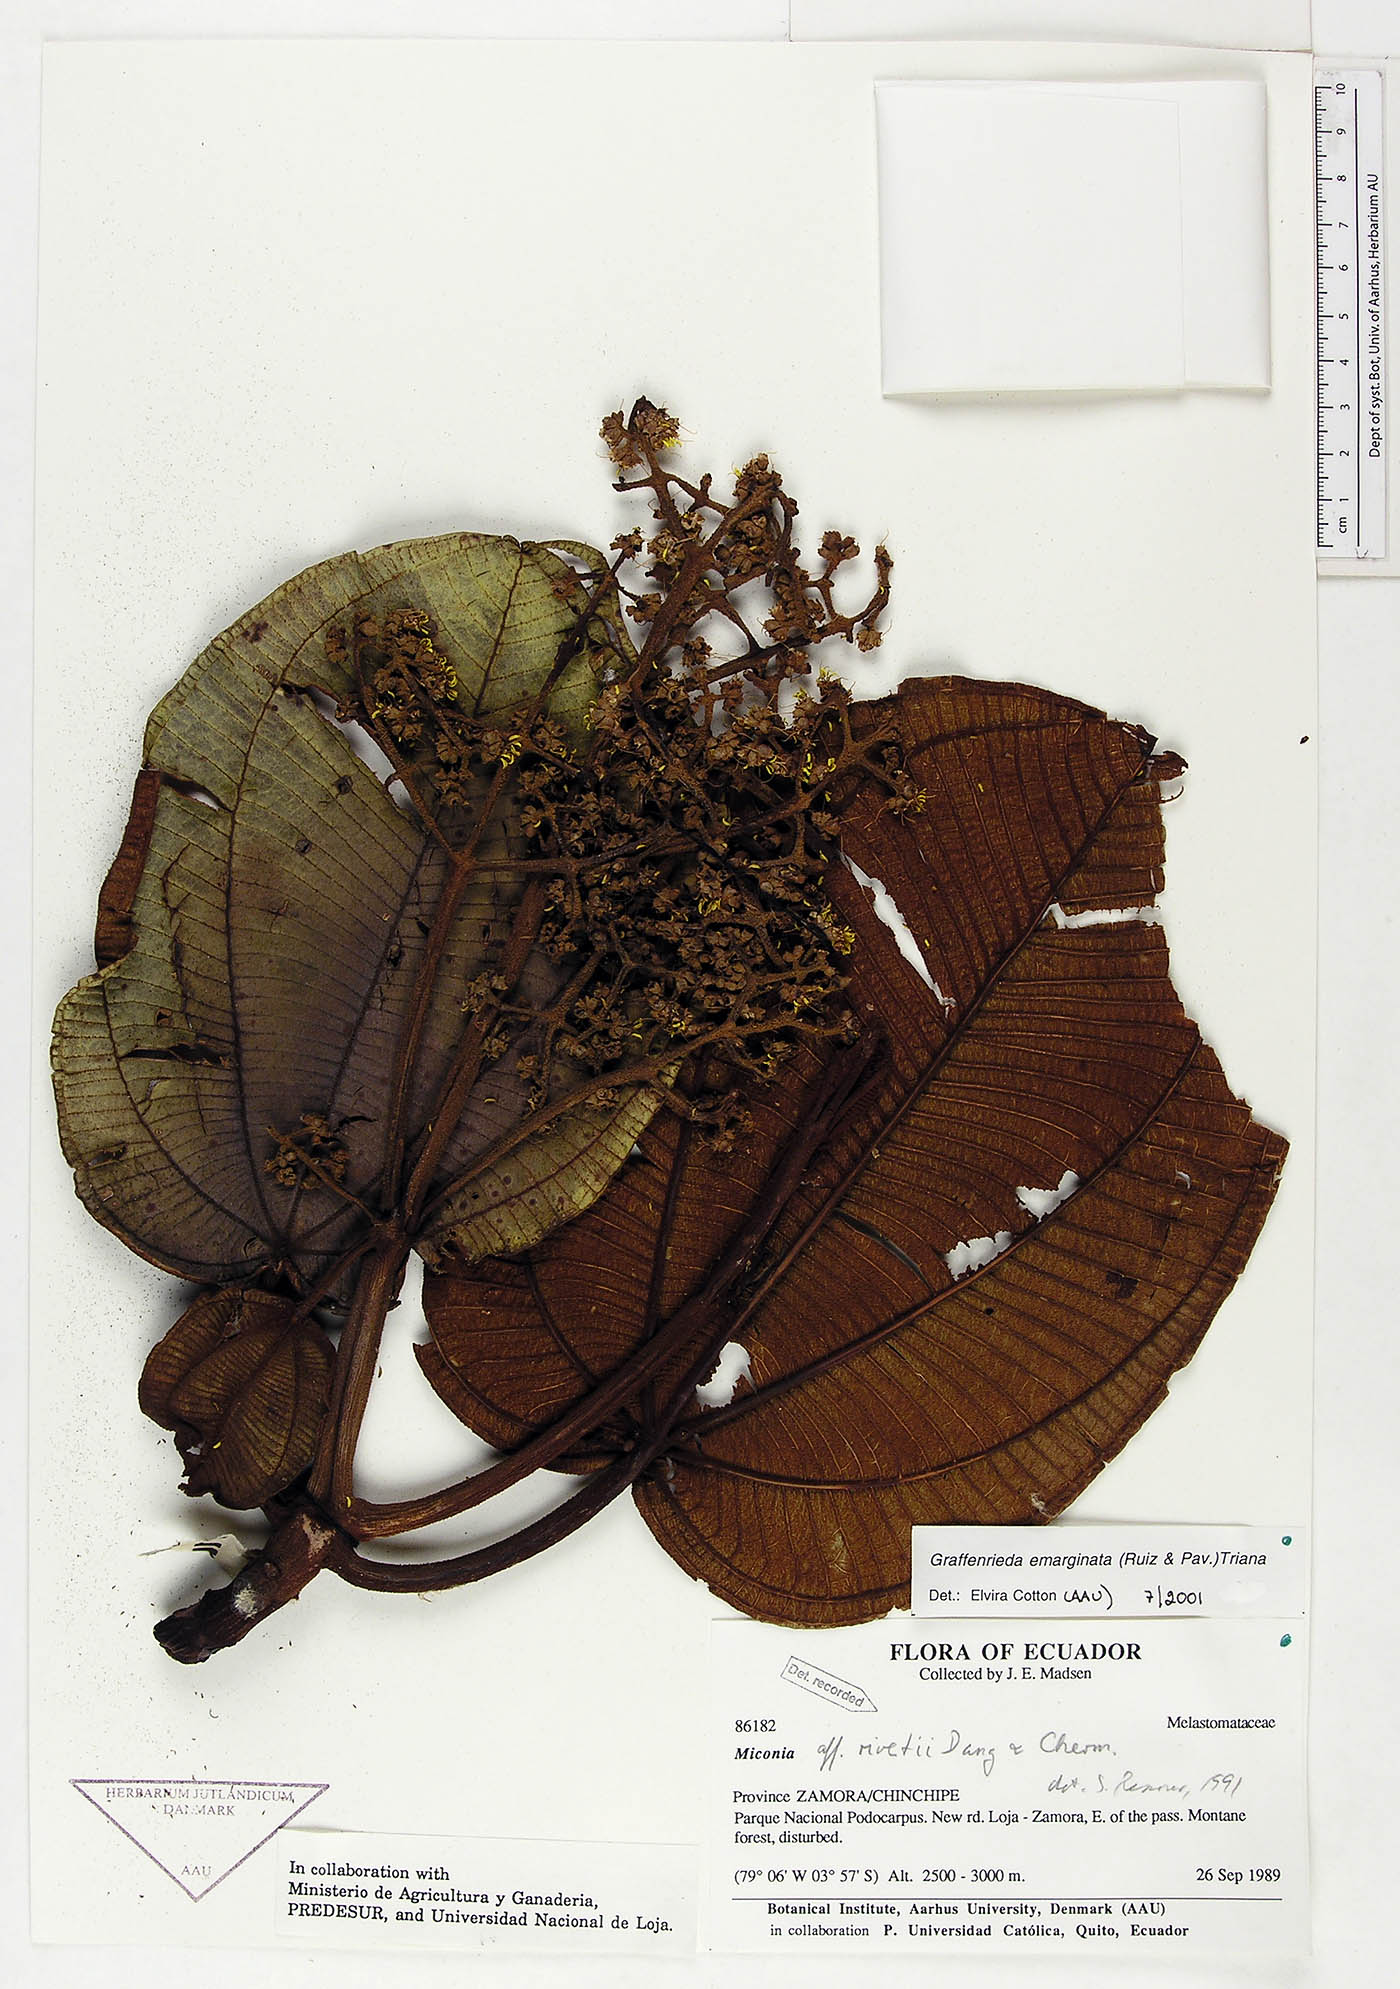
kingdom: Plantae
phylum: Tracheophyta
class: Magnoliopsida
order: Myrtales
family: Melastomataceae
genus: Graffenrieda
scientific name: Graffenrieda emarginata
